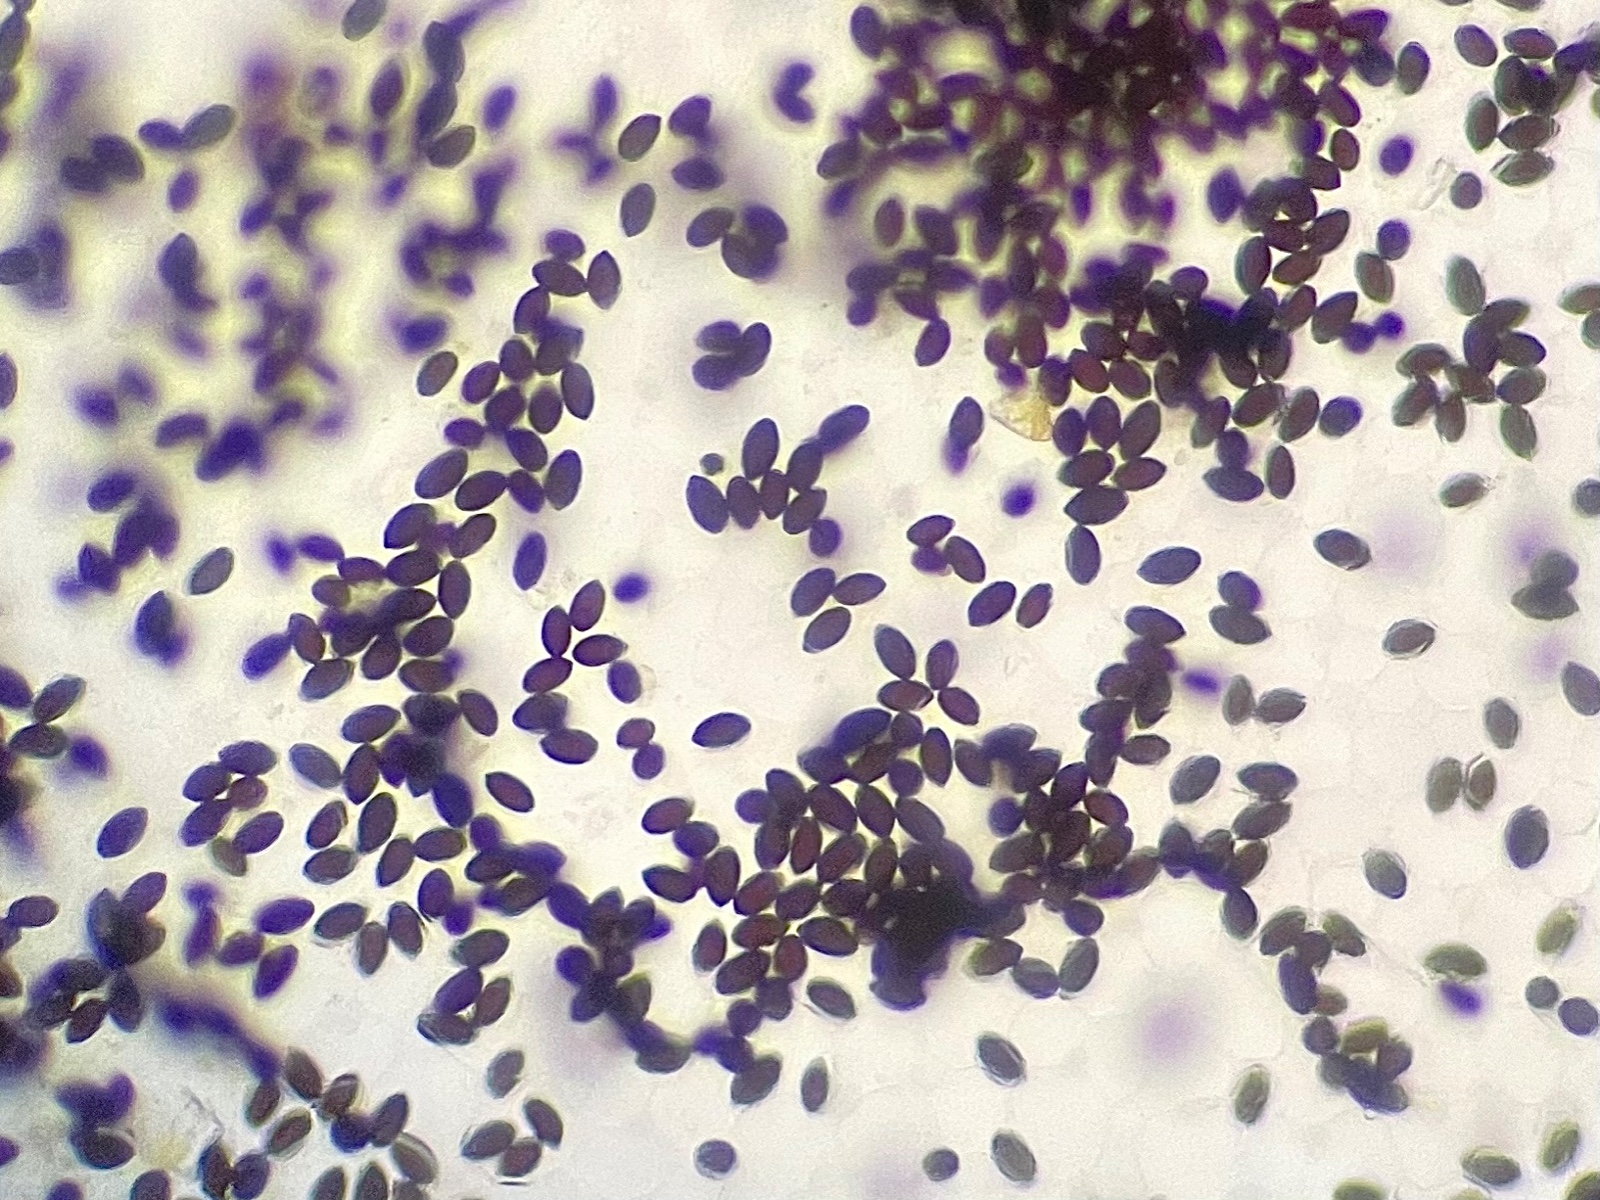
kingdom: Fungi
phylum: Basidiomycota
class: Agaricomycetes
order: Agaricales
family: Psathyrellaceae
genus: Coprinopsis
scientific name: Coprinopsis
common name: blækhat
